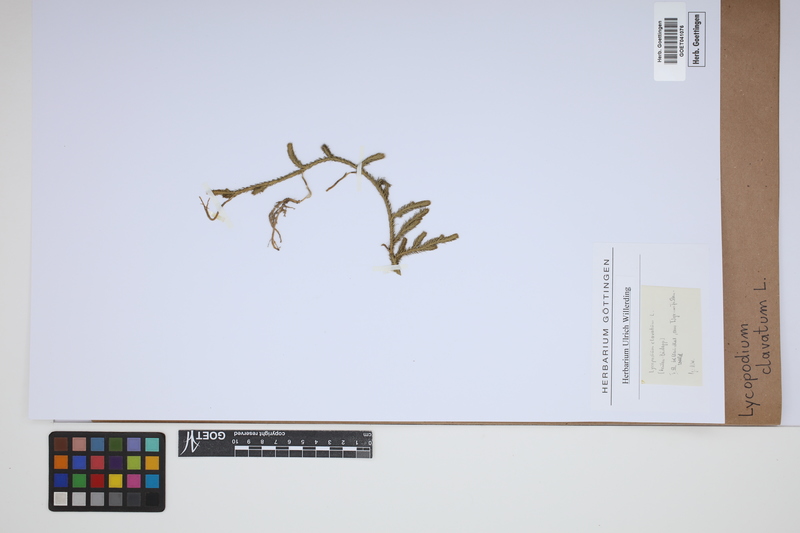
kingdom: Plantae
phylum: Tracheophyta
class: Lycopodiopsida
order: Lycopodiales
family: Lycopodiaceae
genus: Lycopodium
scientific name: Lycopodium clavatum
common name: Stag's-horn clubmoss
